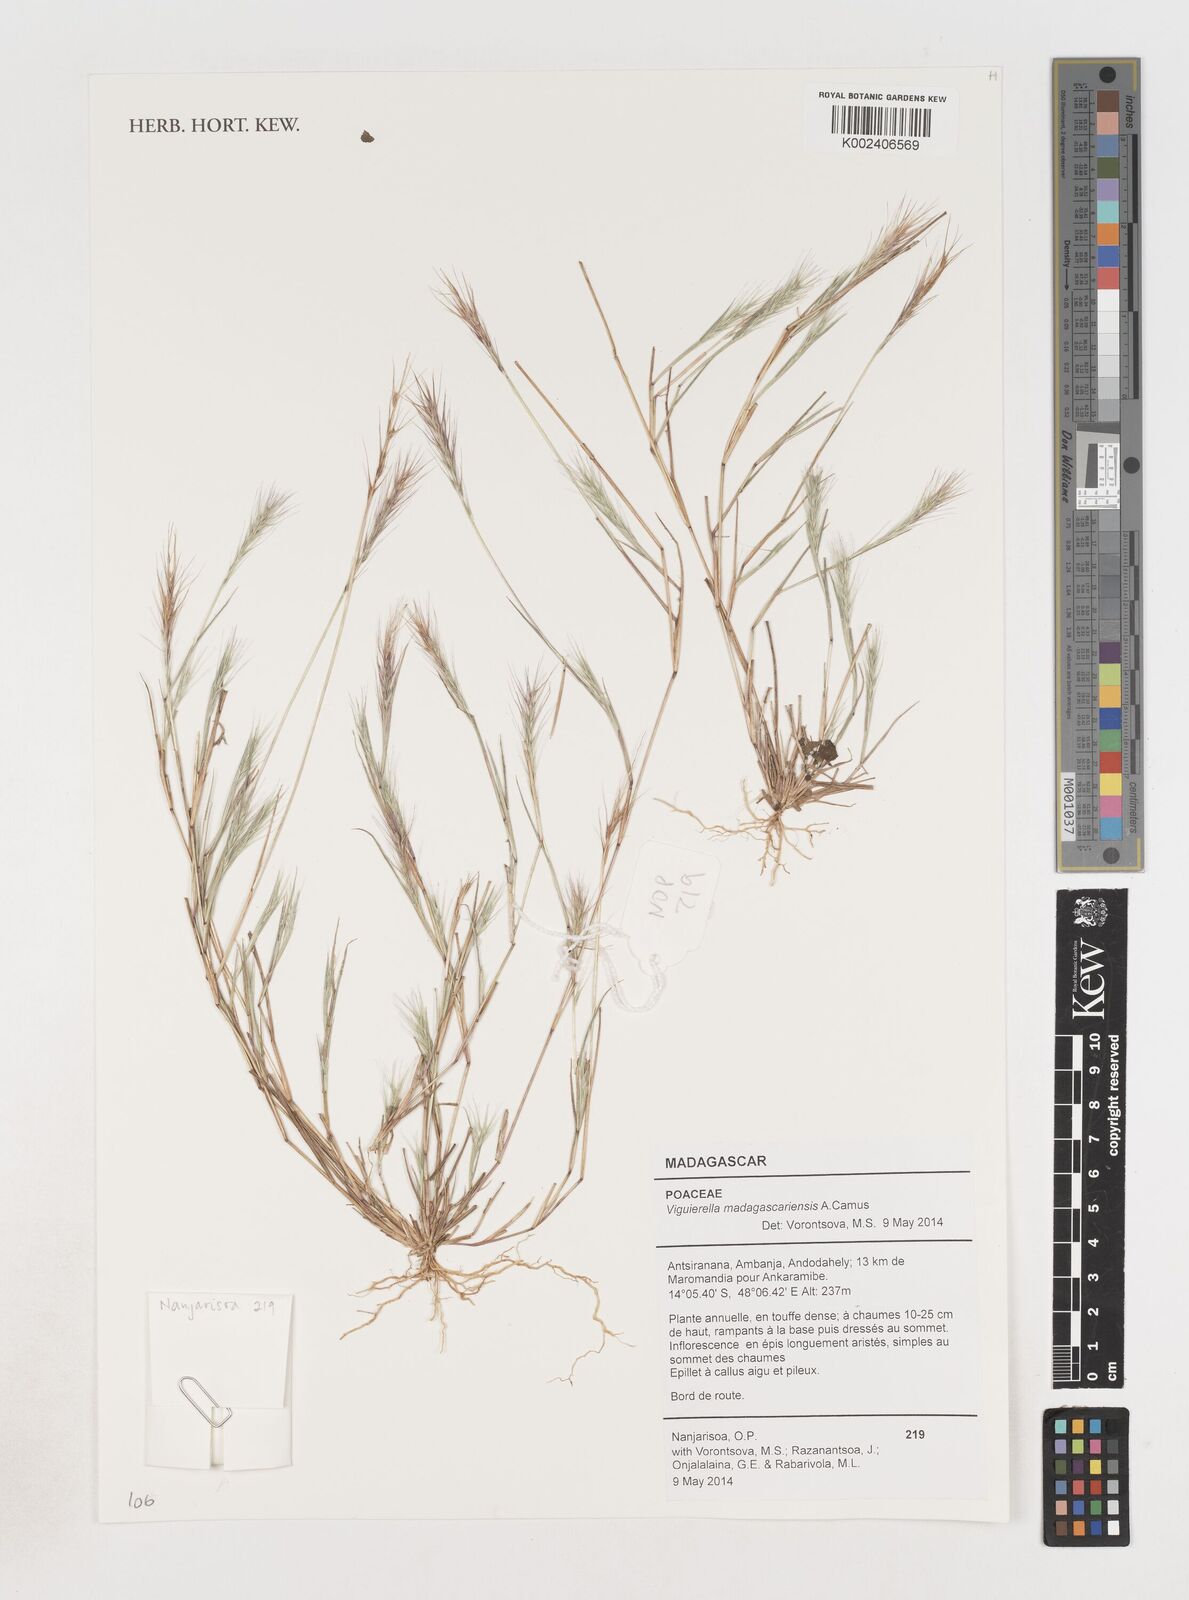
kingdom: Plantae
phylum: Tracheophyta
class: Liliopsida
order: Poales
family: Poaceae
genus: Viguierella
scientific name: Viguierella madagascariensis
